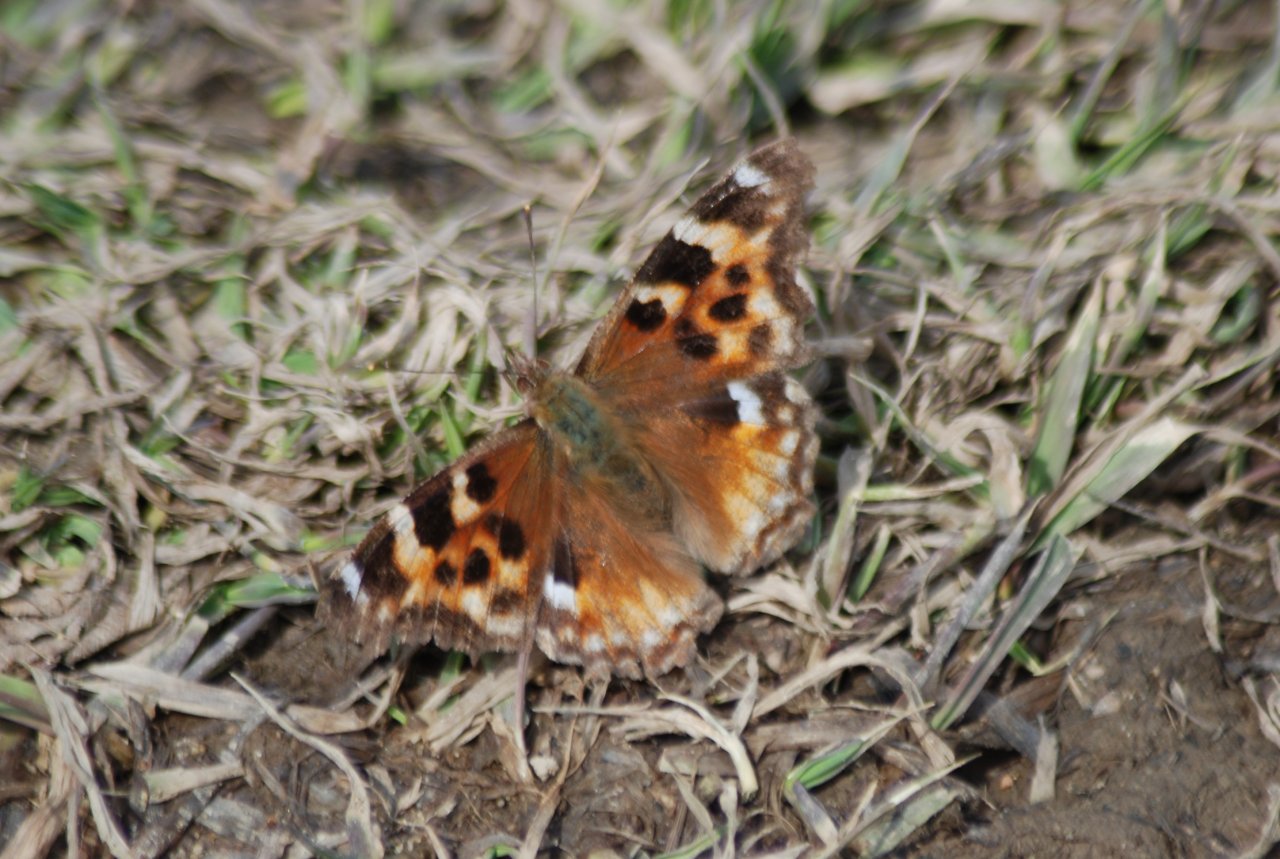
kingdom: Animalia
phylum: Arthropoda
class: Insecta
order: Lepidoptera
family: Nymphalidae
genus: Polygonia
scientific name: Polygonia vaualbum
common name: Compton Tortoiseshell
